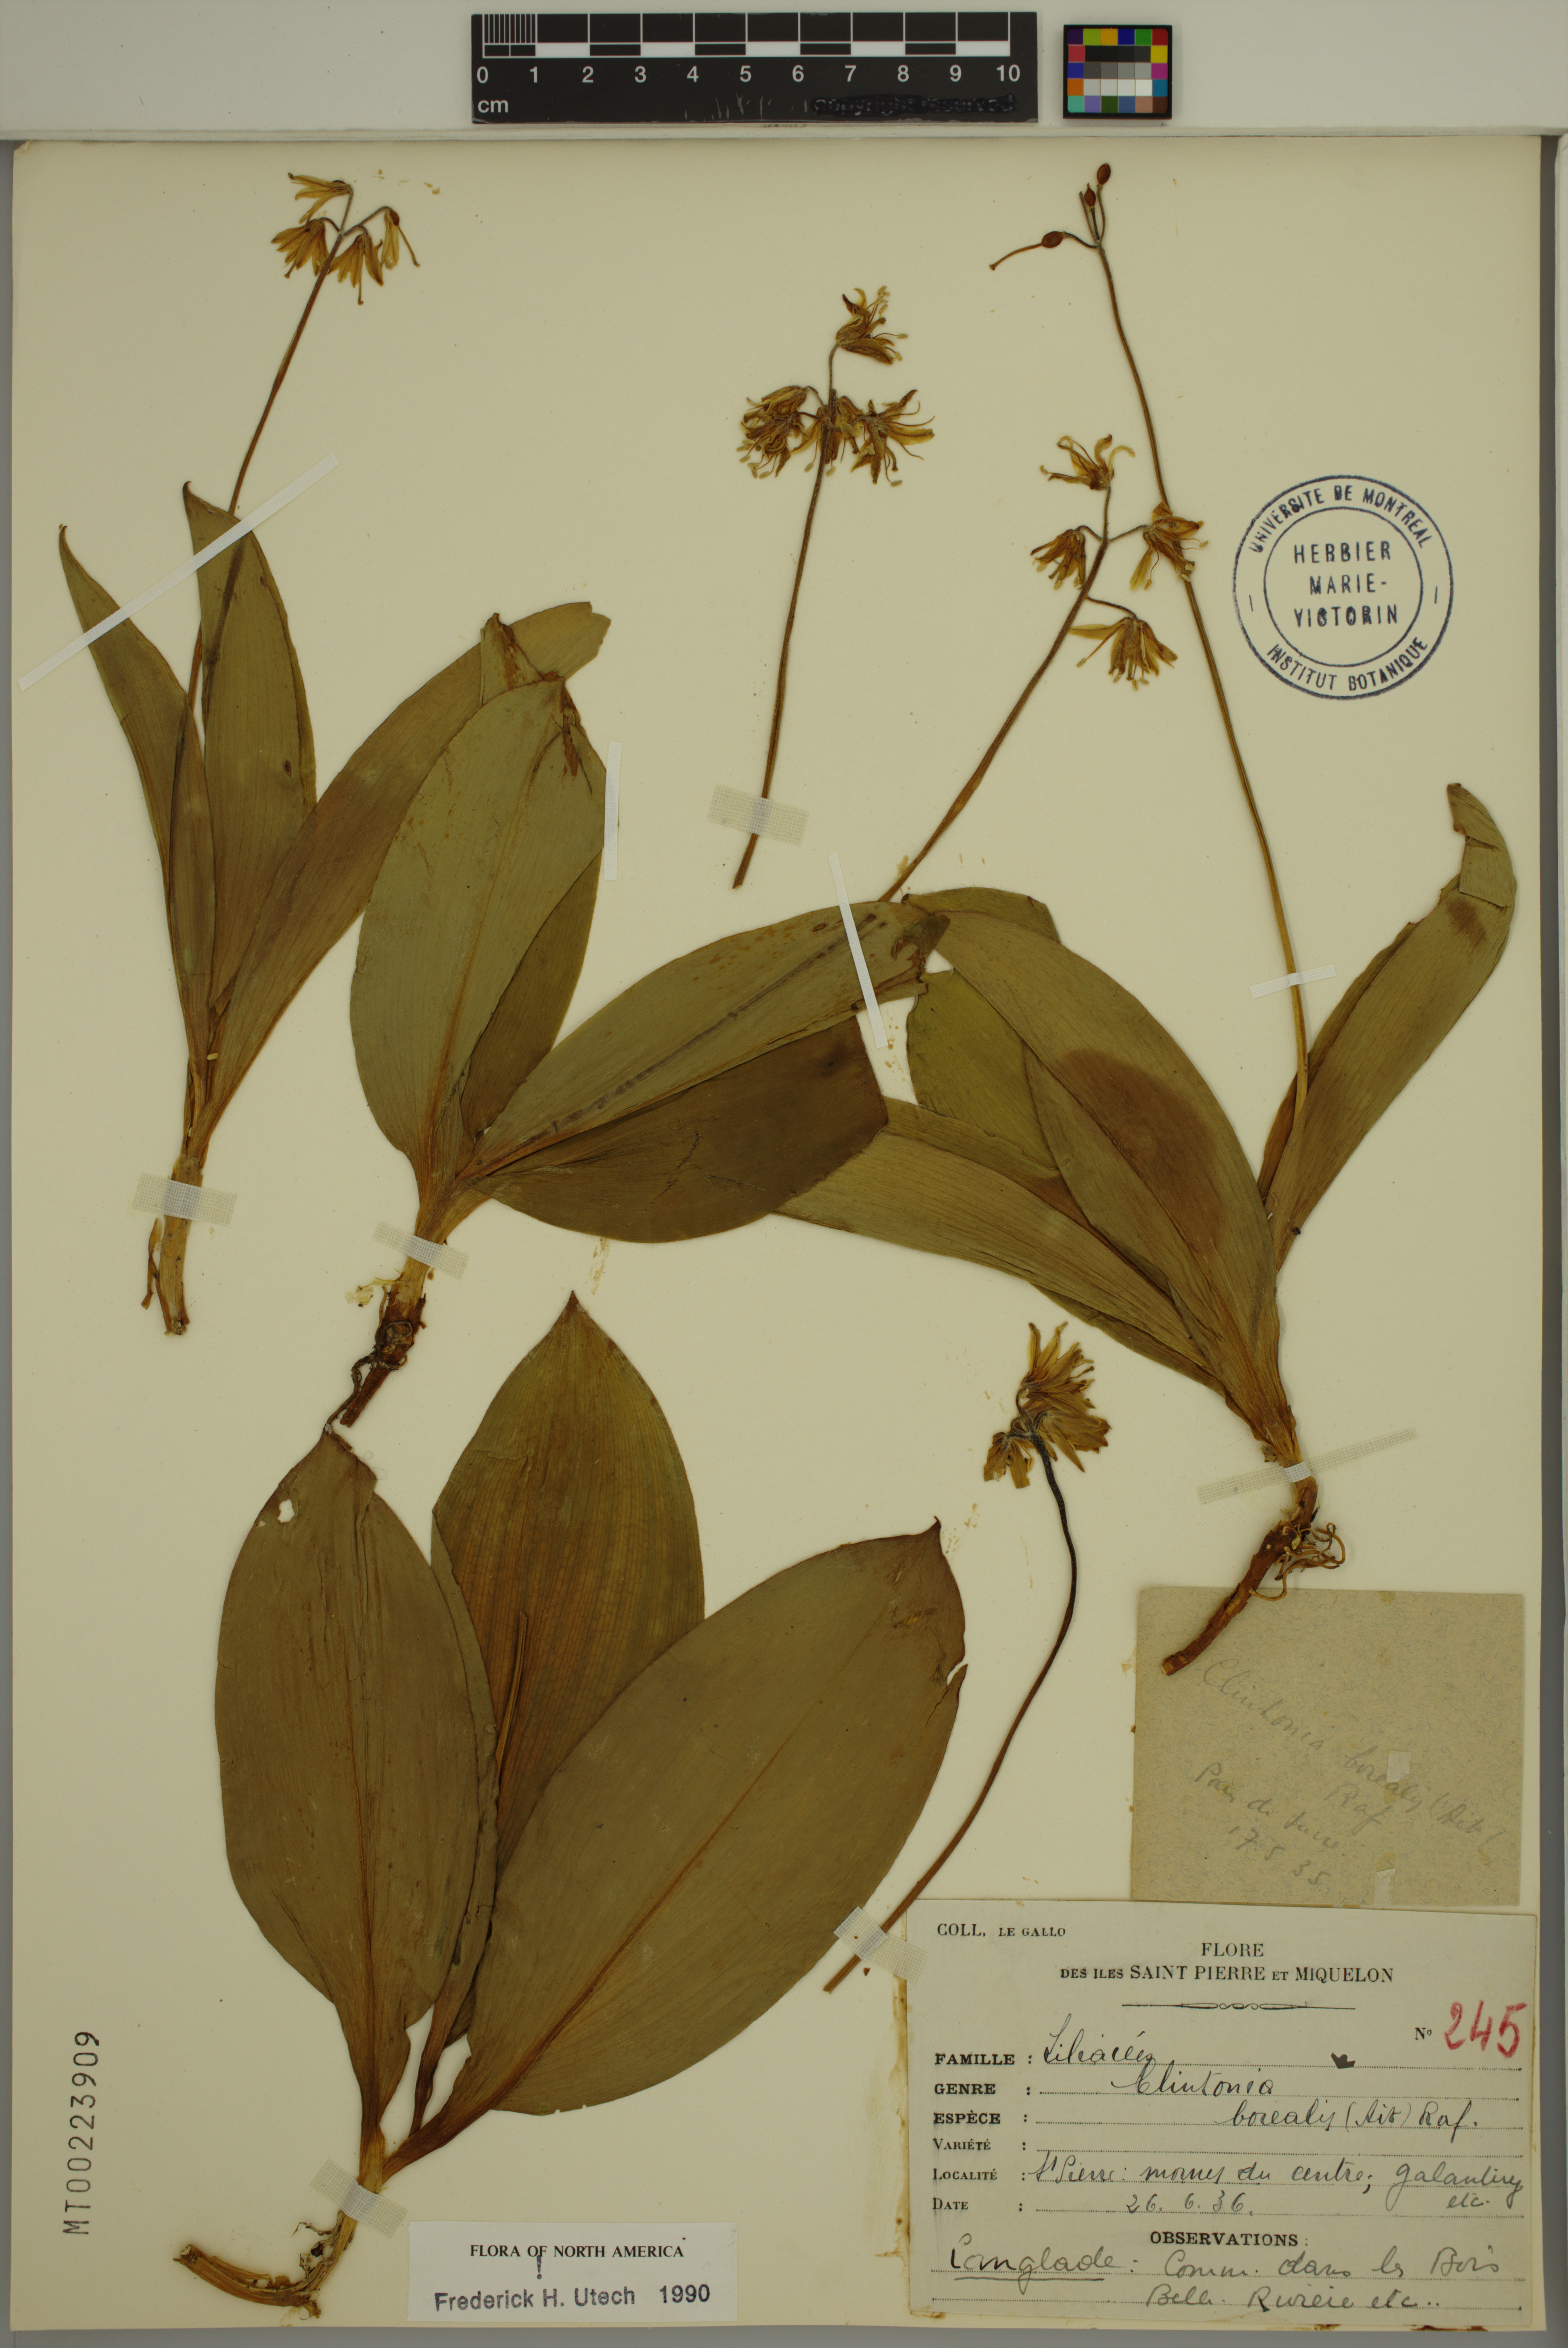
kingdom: Plantae
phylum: Tracheophyta
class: Liliopsida
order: Liliales
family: Liliaceae
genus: Clintonia
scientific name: Clintonia borealis
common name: Yellow clintonia
